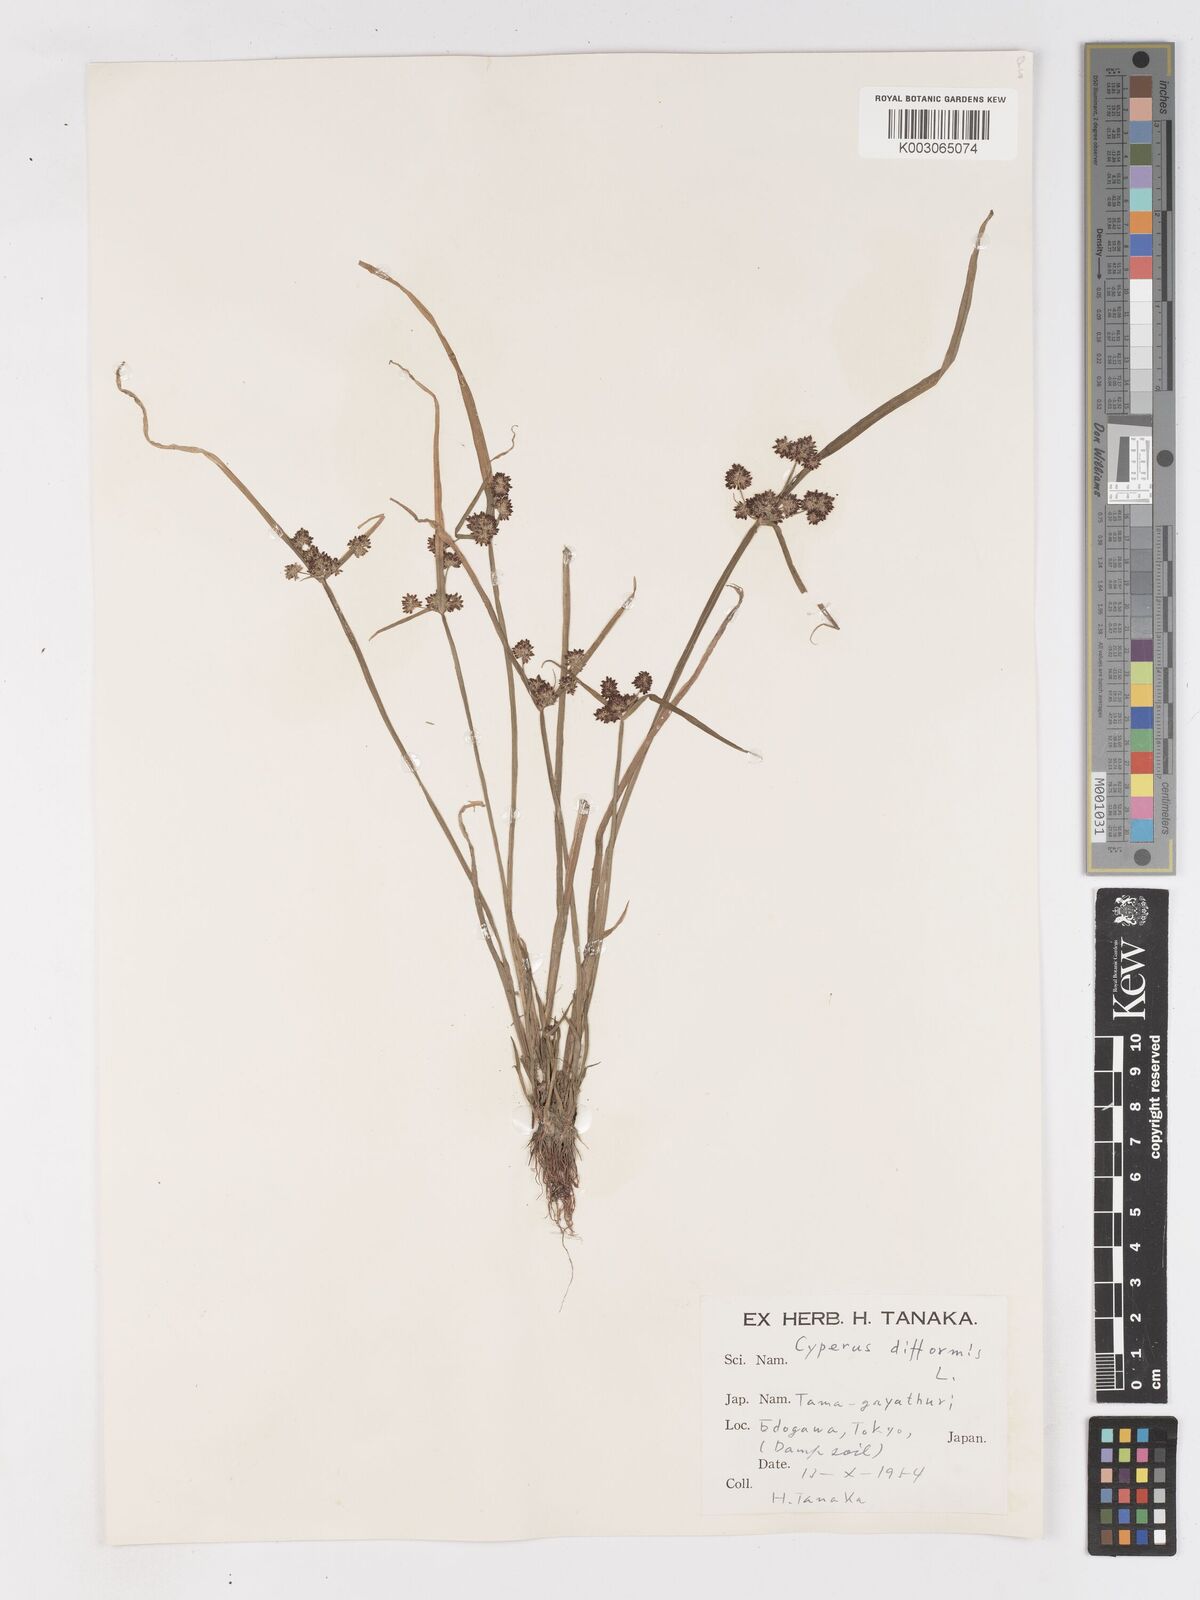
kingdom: Plantae
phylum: Tracheophyta
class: Liliopsida
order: Poales
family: Cyperaceae
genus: Cyperus
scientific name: Cyperus difformis
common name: Variable flatsedge
